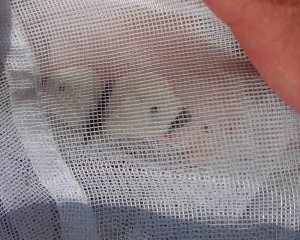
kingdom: Animalia
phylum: Arthropoda
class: Insecta
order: Lepidoptera
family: Pieridae
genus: Pieris
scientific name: Pieris rapae
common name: Cabbage White
